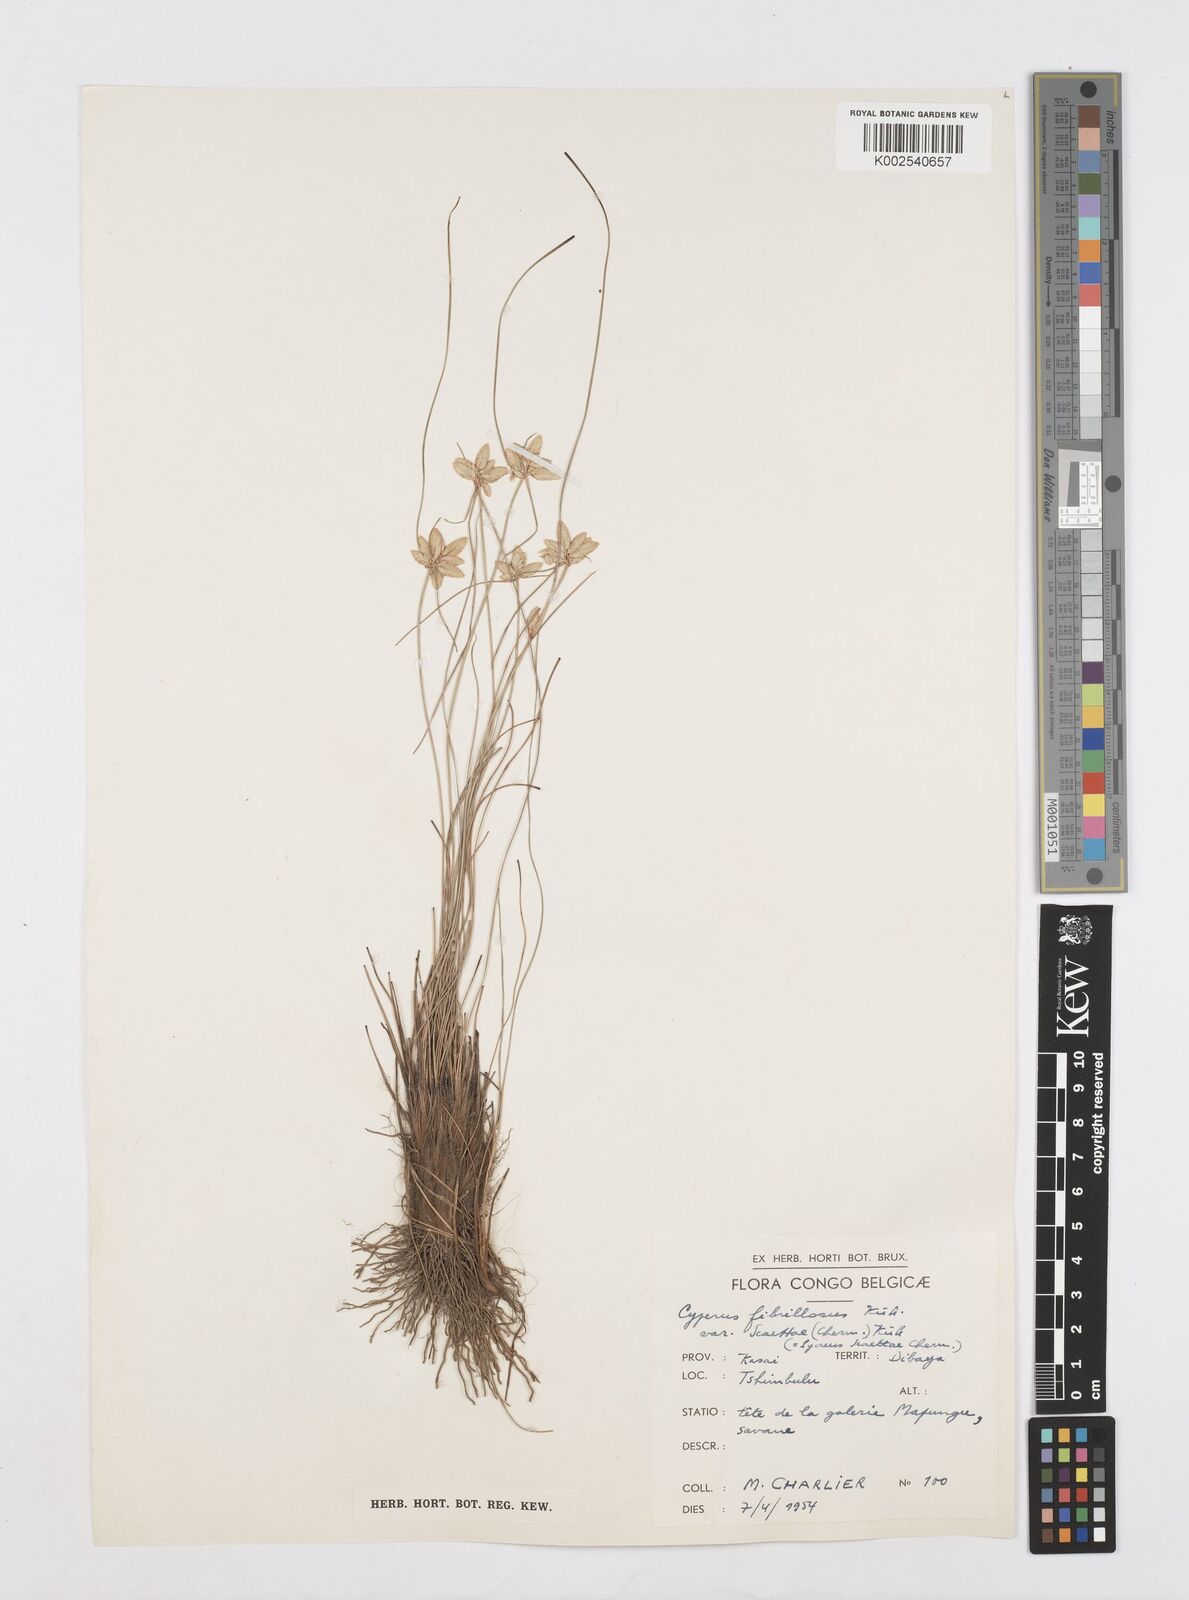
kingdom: Plantae
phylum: Tracheophyta
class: Liliopsida
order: Poales
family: Cyperaceae
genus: Cyperus
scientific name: Cyperus scaettae
